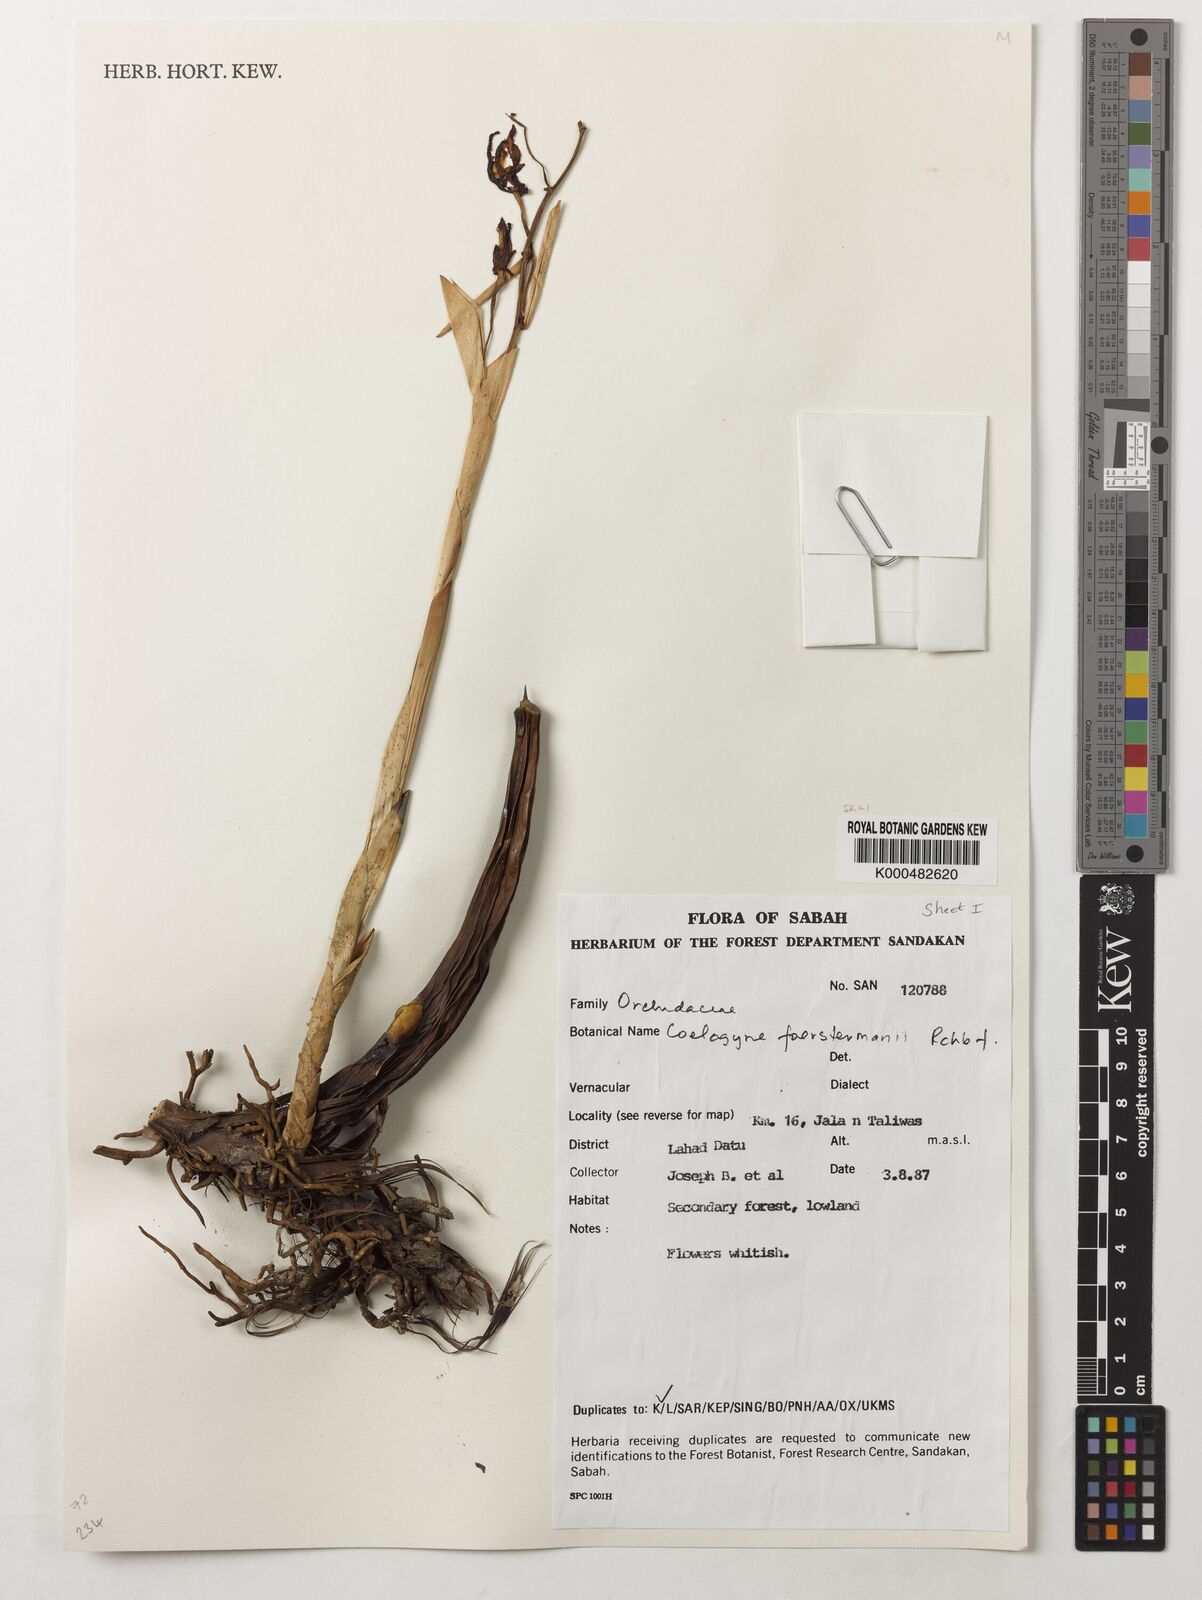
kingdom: Plantae
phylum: Tracheophyta
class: Liliopsida
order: Asparagales
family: Orchidaceae
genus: Coelogyne
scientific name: Coelogyne
